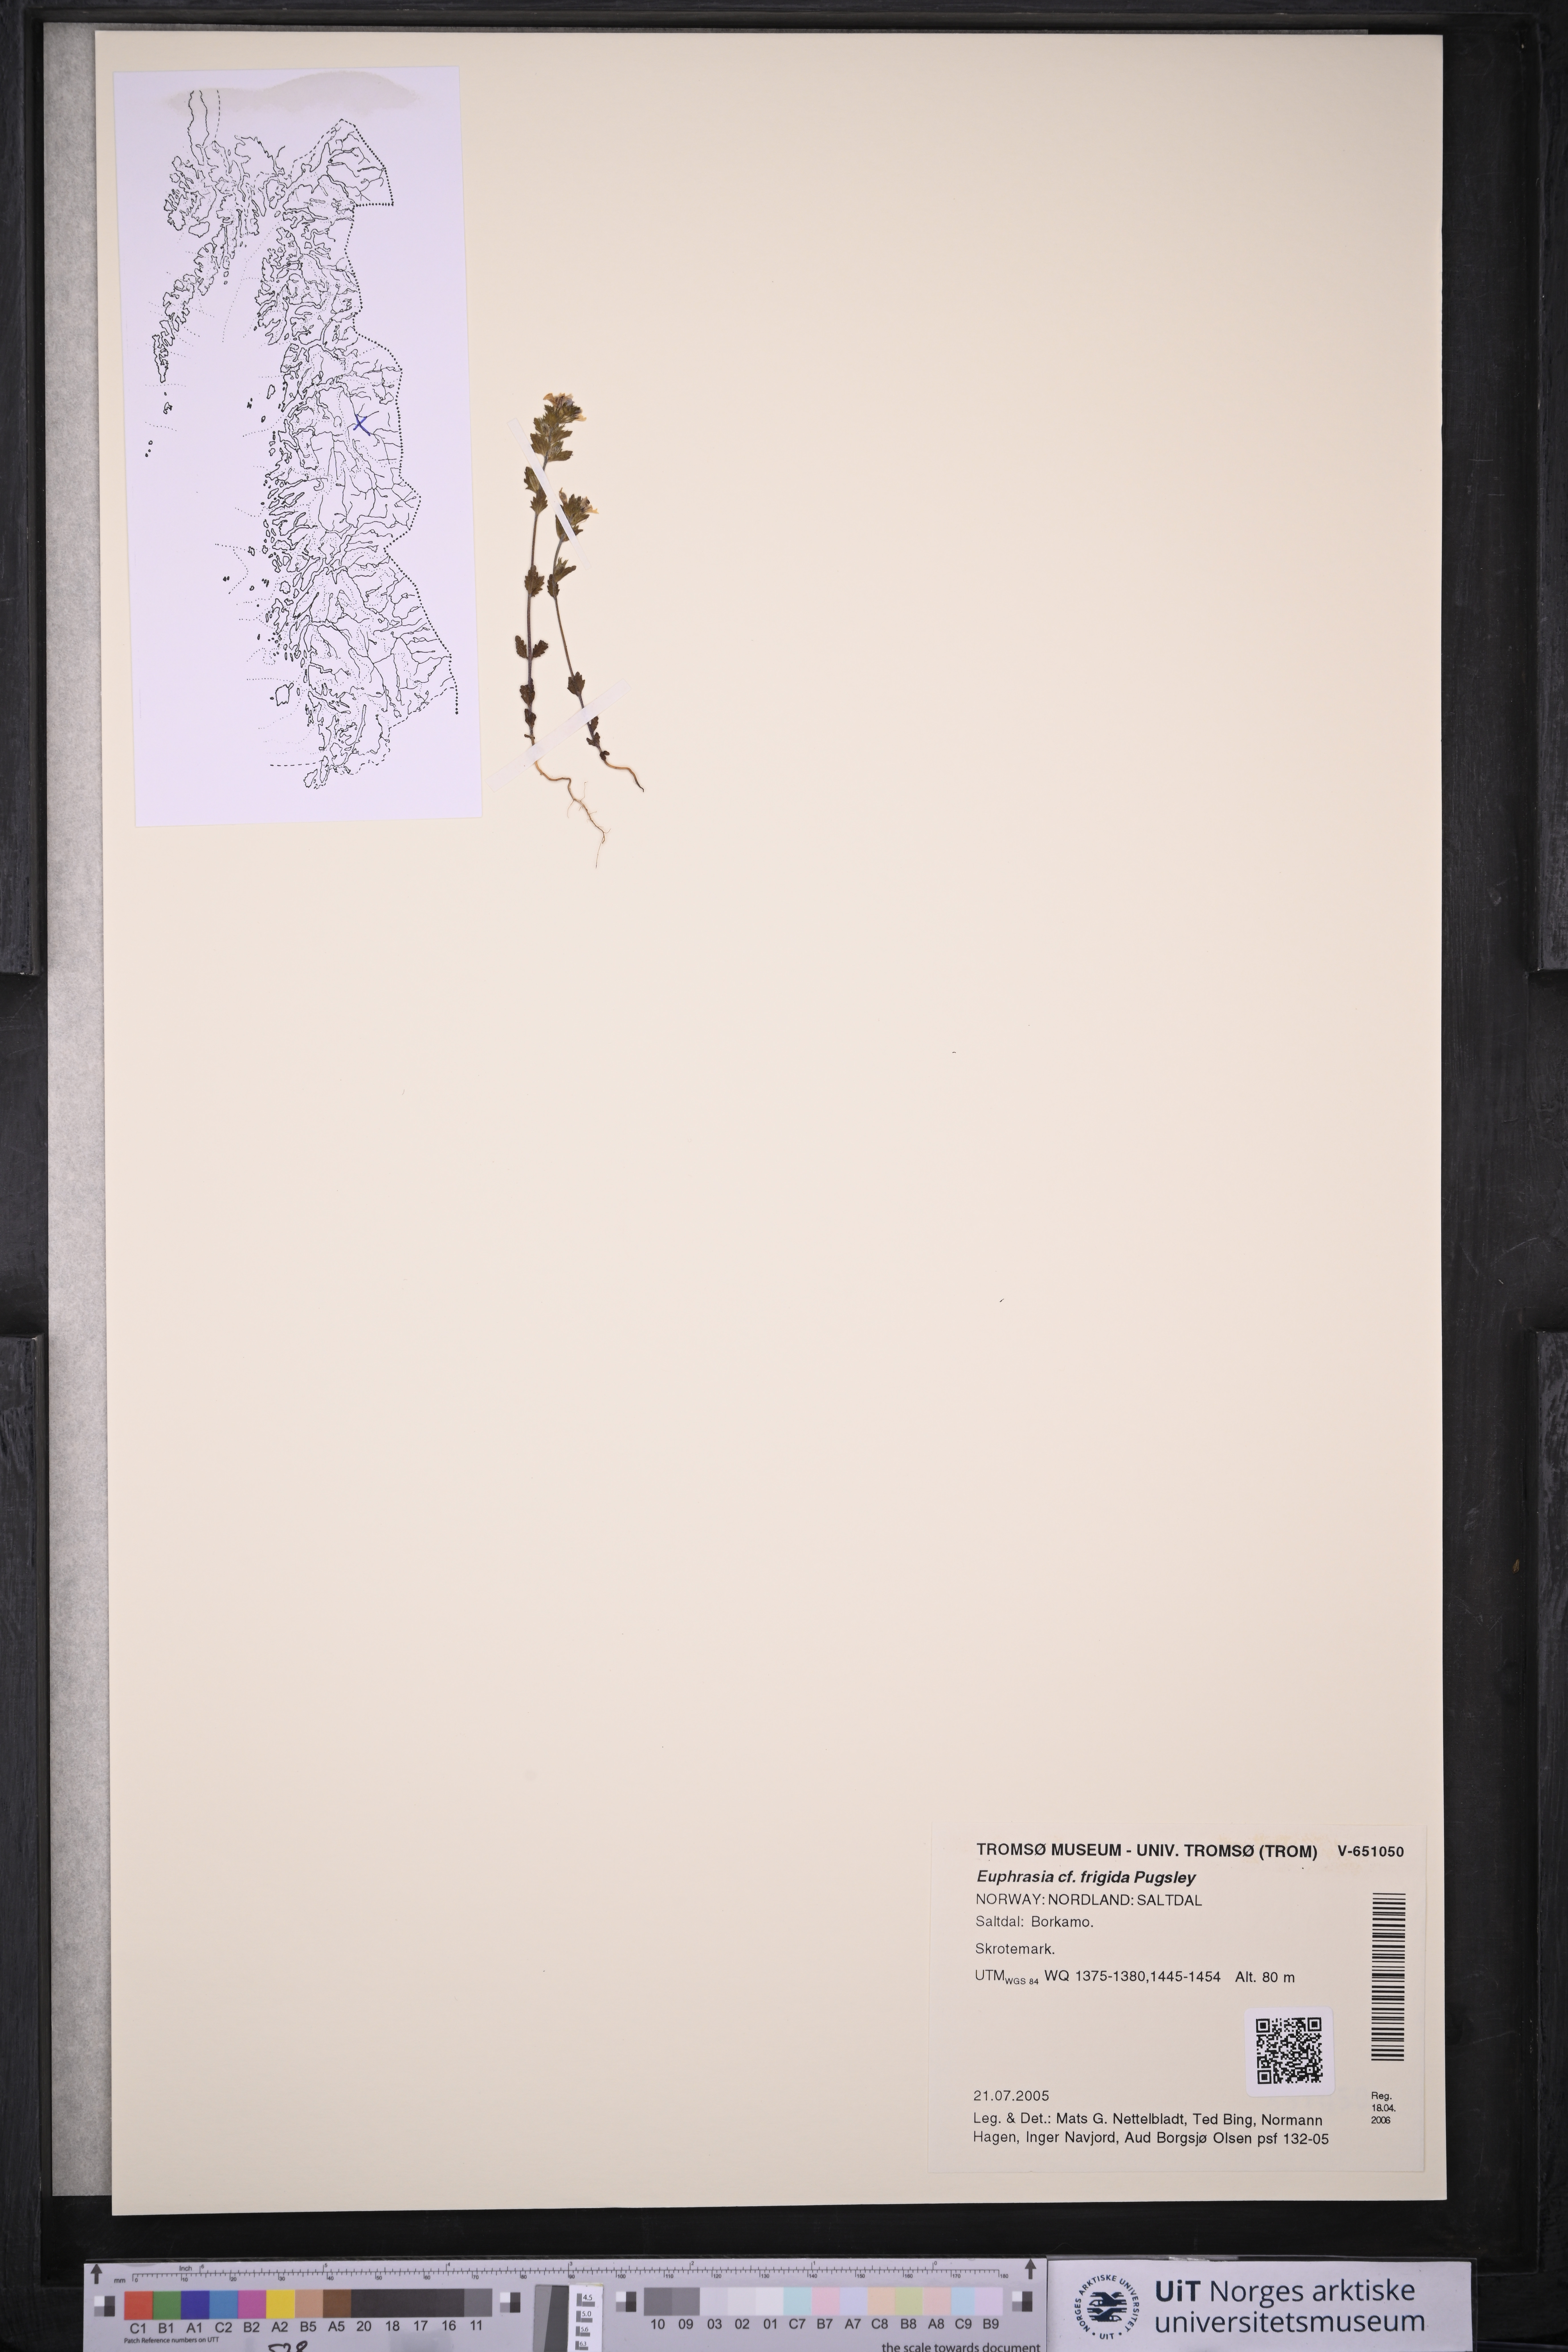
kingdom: Plantae
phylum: Tracheophyta
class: Magnoliopsida
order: Lamiales
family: Orobanchaceae
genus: Euphrasia
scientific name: Euphrasia frigida
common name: An eyebright
